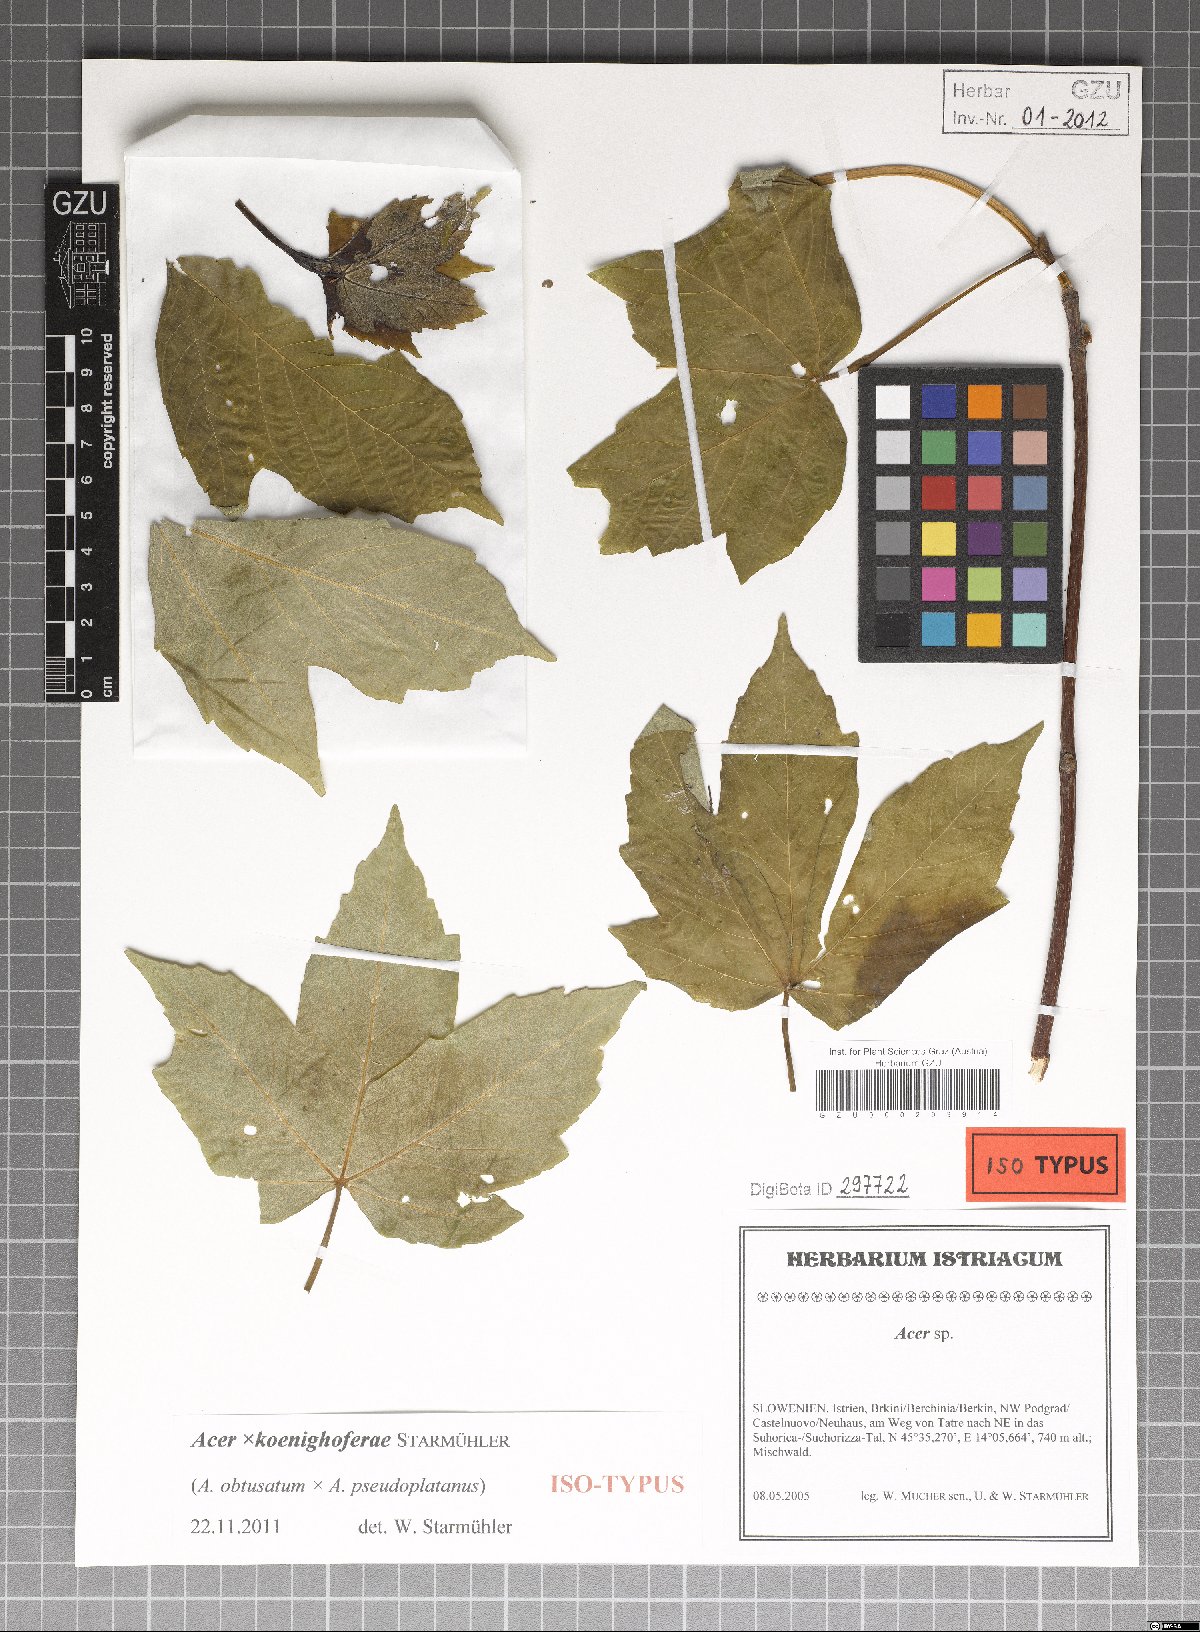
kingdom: Plantae
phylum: Tracheophyta
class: Magnoliopsida
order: Sapindales
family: Aceraceae
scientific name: Aceraceae
